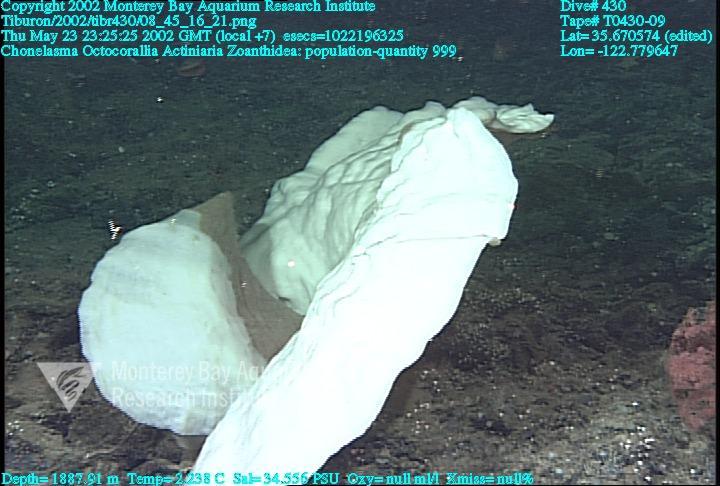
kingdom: Animalia
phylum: Porifera
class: Hexactinellida
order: Sceptrulophora
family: Euretidae
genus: Chonelasma
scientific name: Chonelasma
